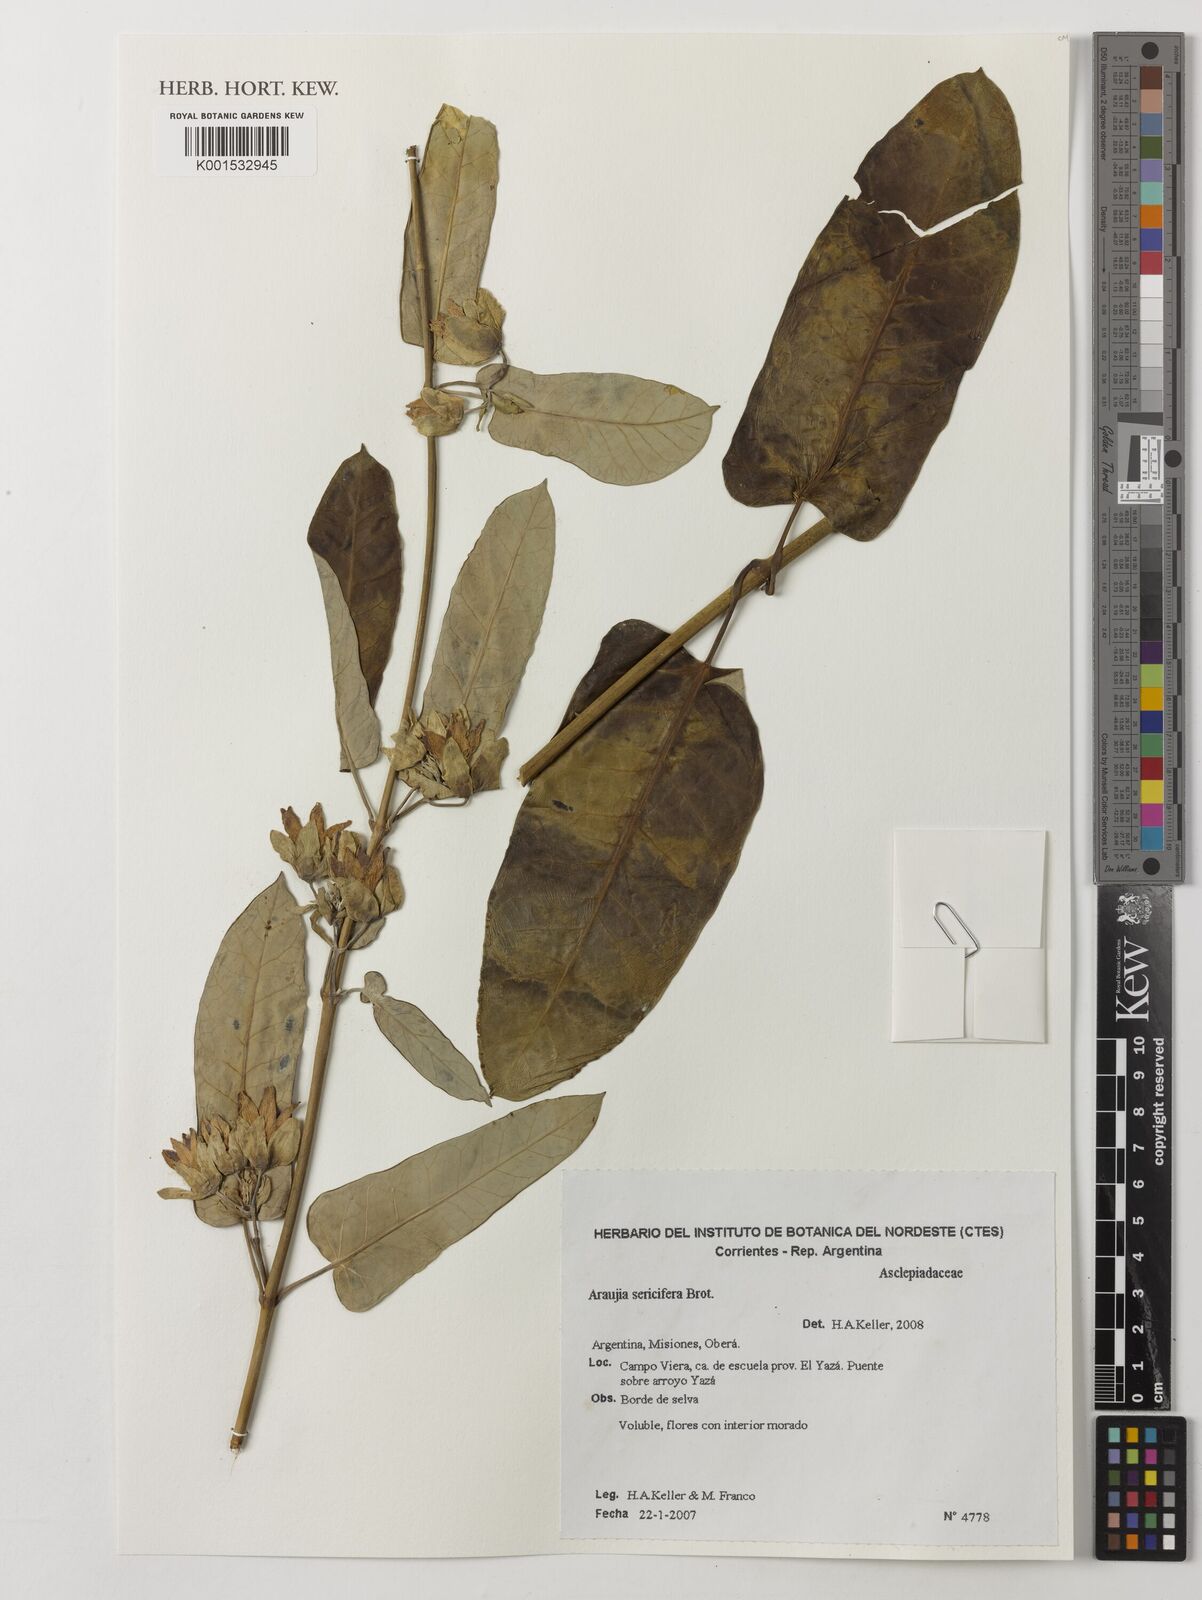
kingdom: Plantae
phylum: Tracheophyta
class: Magnoliopsida
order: Gentianales
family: Apocynaceae
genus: Araujia
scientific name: Araujia sericifera
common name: White bladderflower
